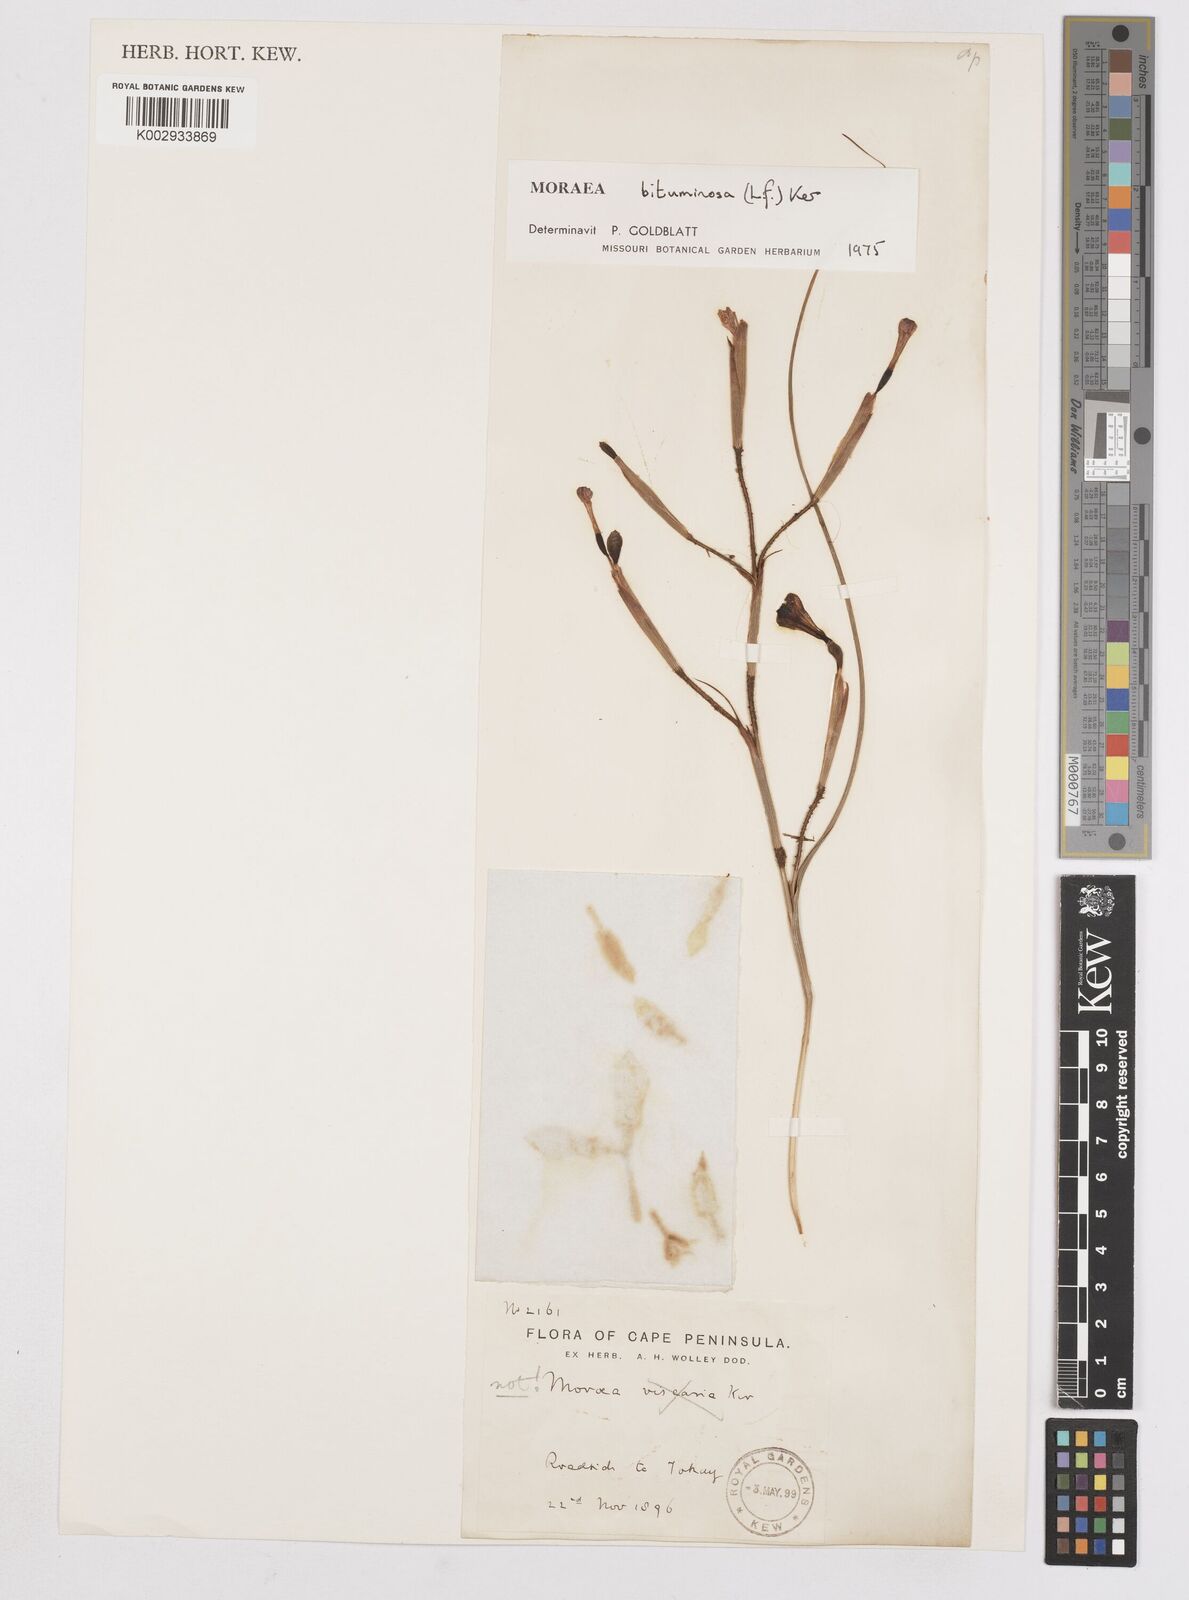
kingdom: Plantae
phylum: Tracheophyta
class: Liliopsida
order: Asparagales
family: Iridaceae
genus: Moraea
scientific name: Moraea bituminosa
